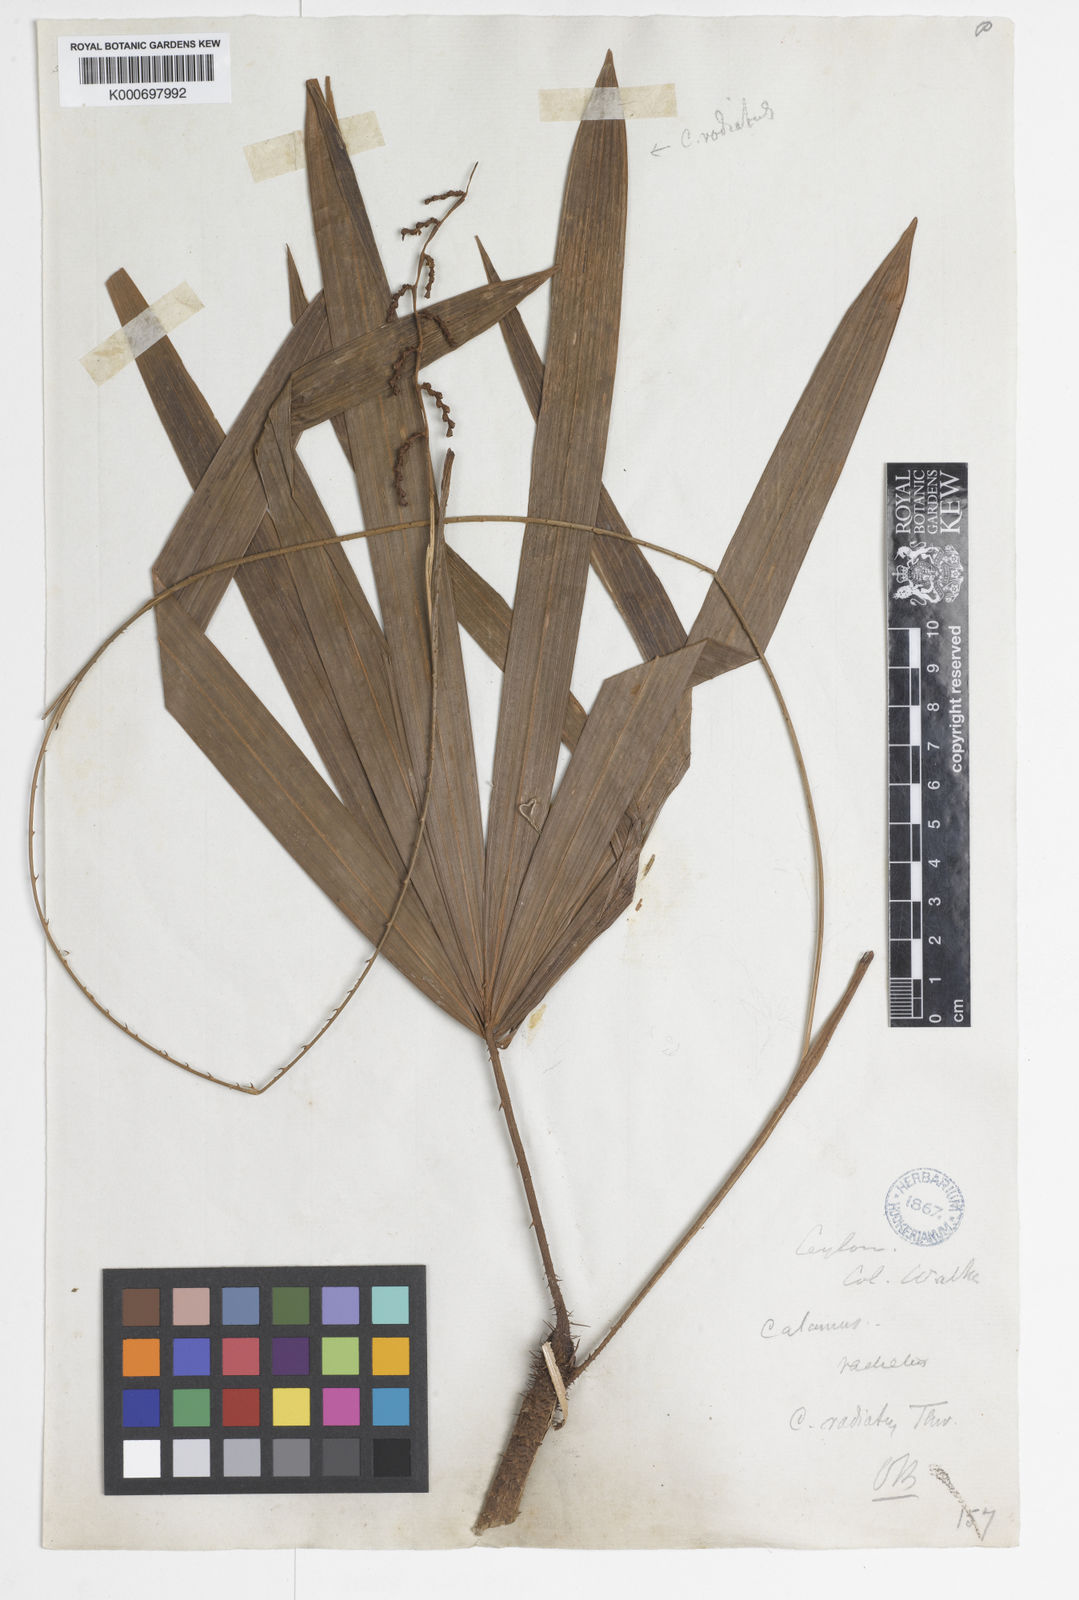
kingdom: Plantae
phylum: Tracheophyta
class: Liliopsida
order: Arecales
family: Arecaceae
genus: Calamus
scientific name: Calamus radiatus
